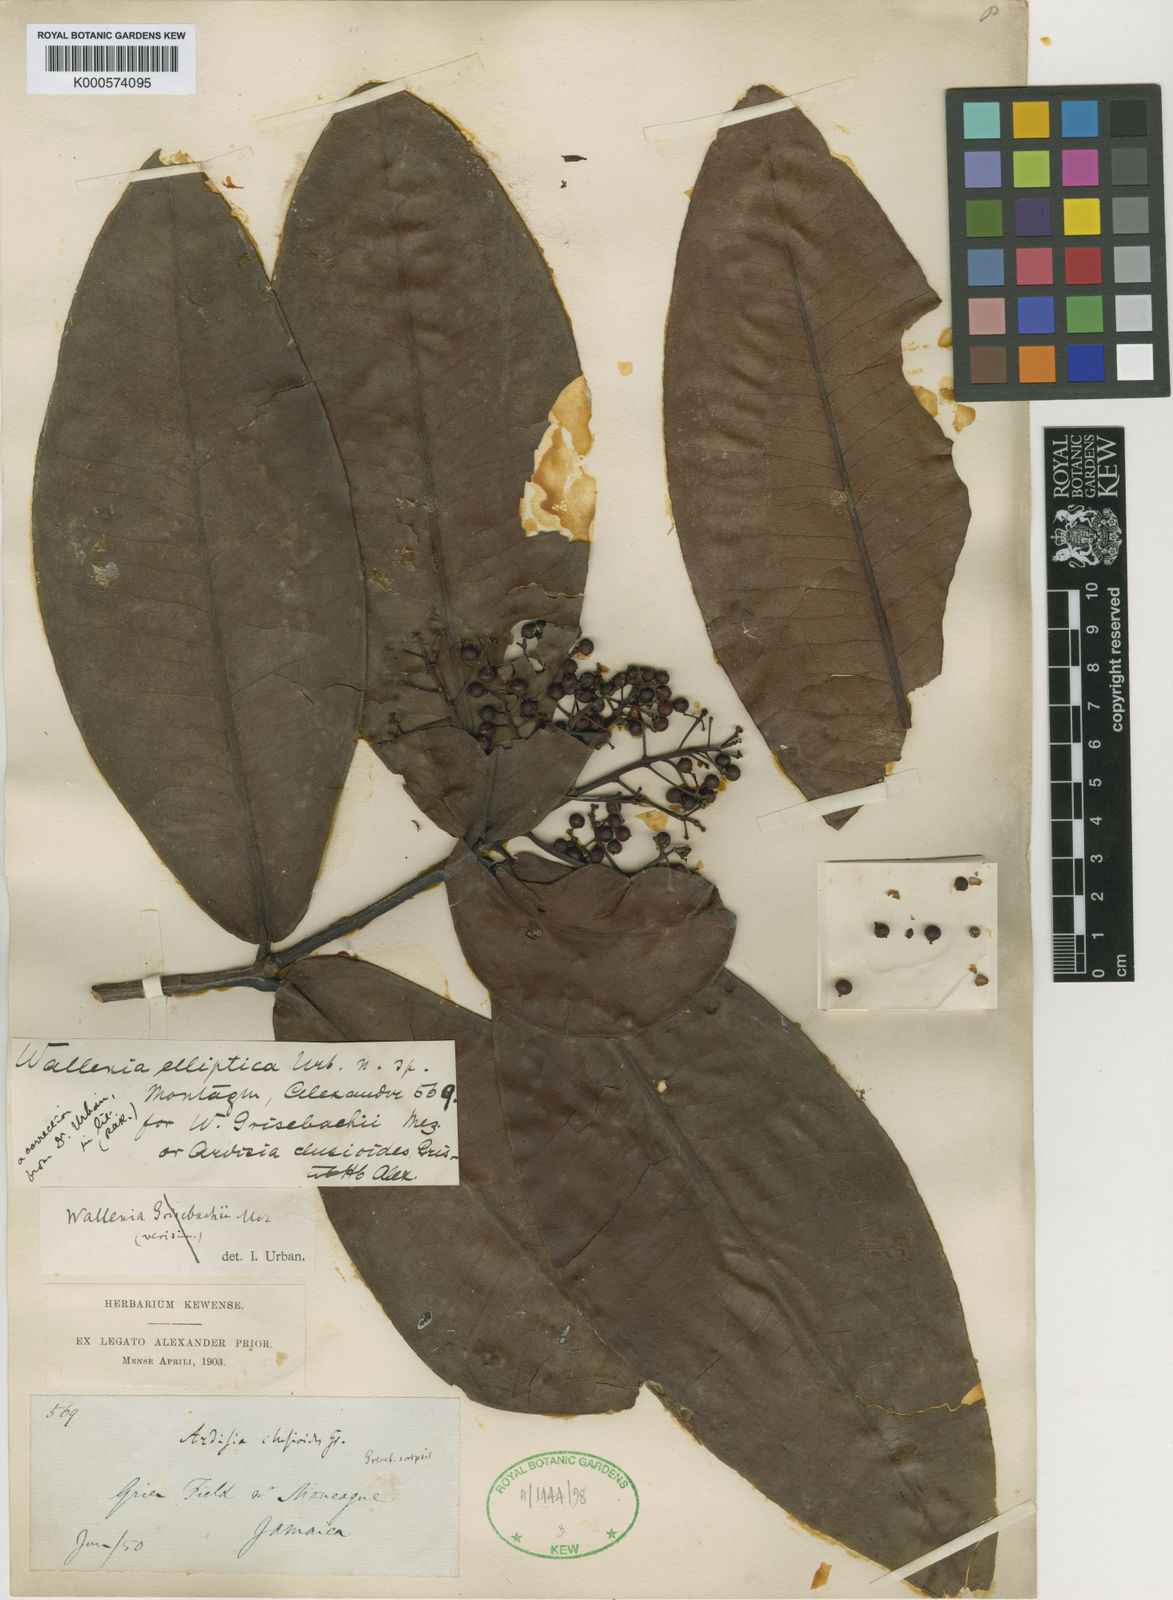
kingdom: Plantae
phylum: Tracheophyta
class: Magnoliopsida
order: Ericales
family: Primulaceae
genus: Wallenia
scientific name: Wallenia elliptica
